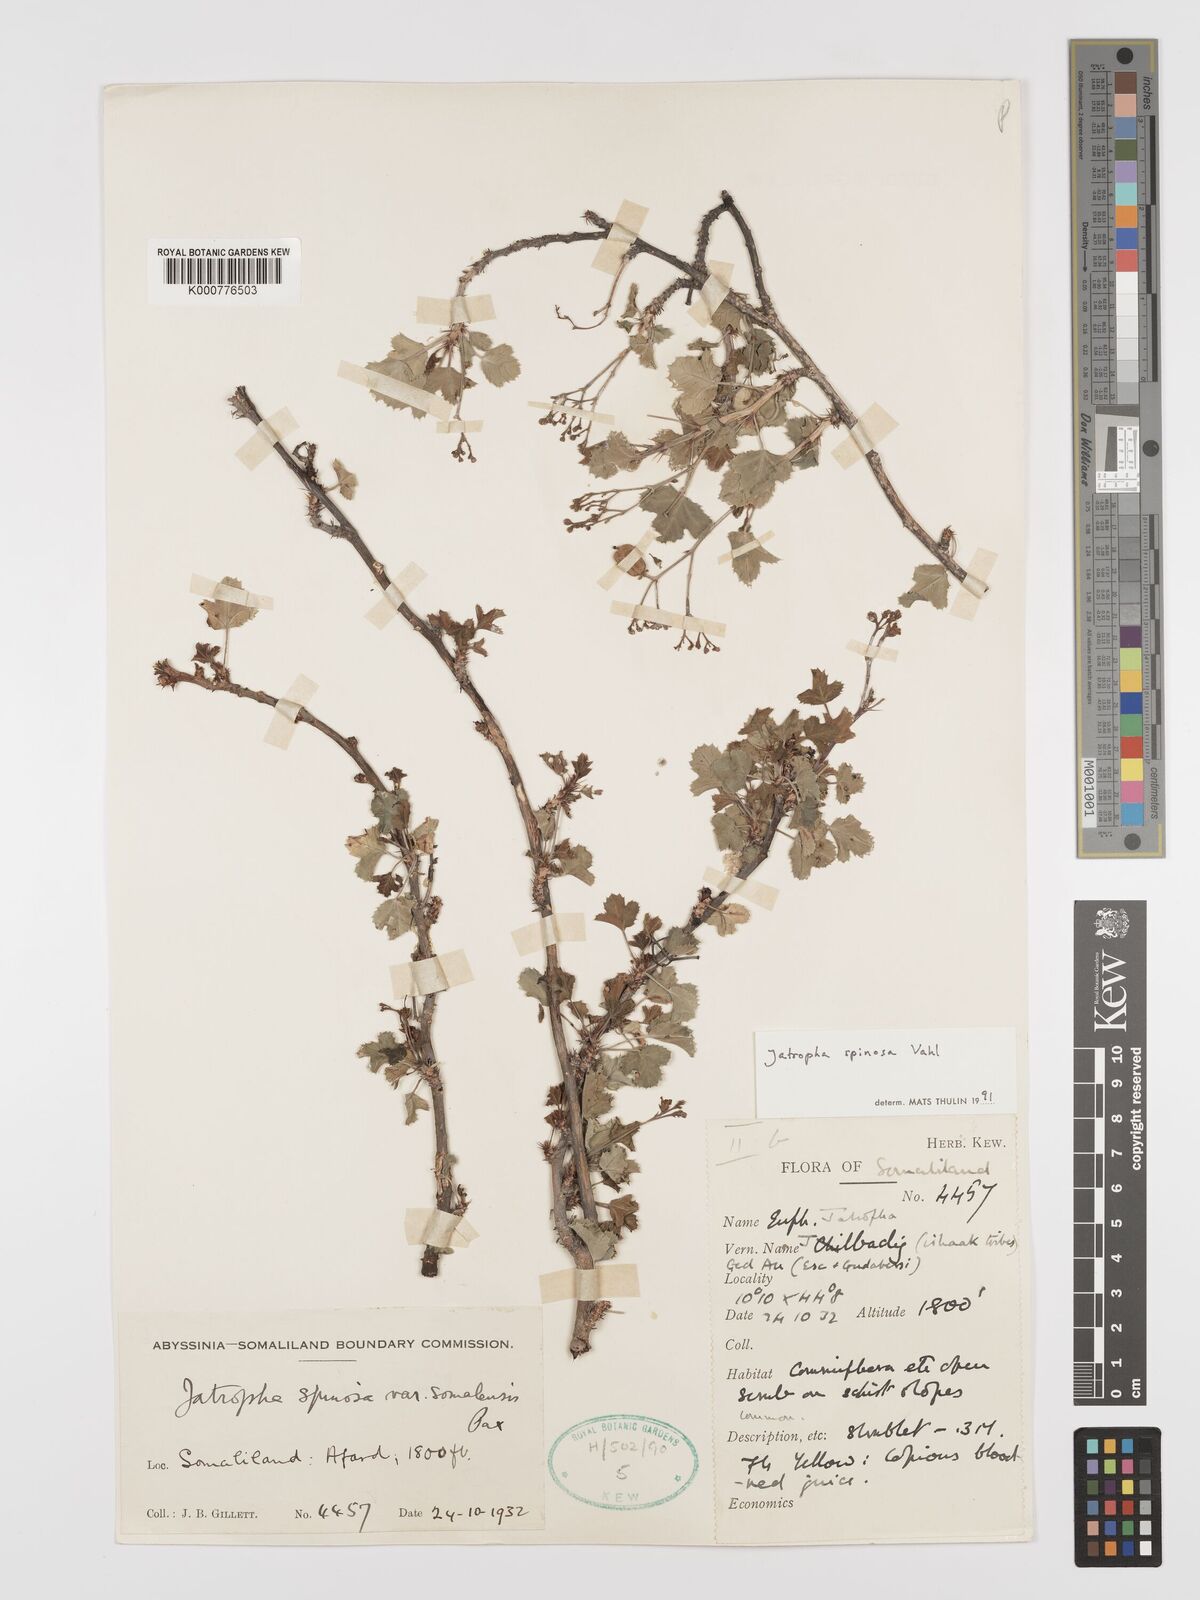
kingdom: Plantae
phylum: Tracheophyta
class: Magnoliopsida
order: Malpighiales
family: Euphorbiaceae
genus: Jatropha
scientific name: Jatropha spinosa
